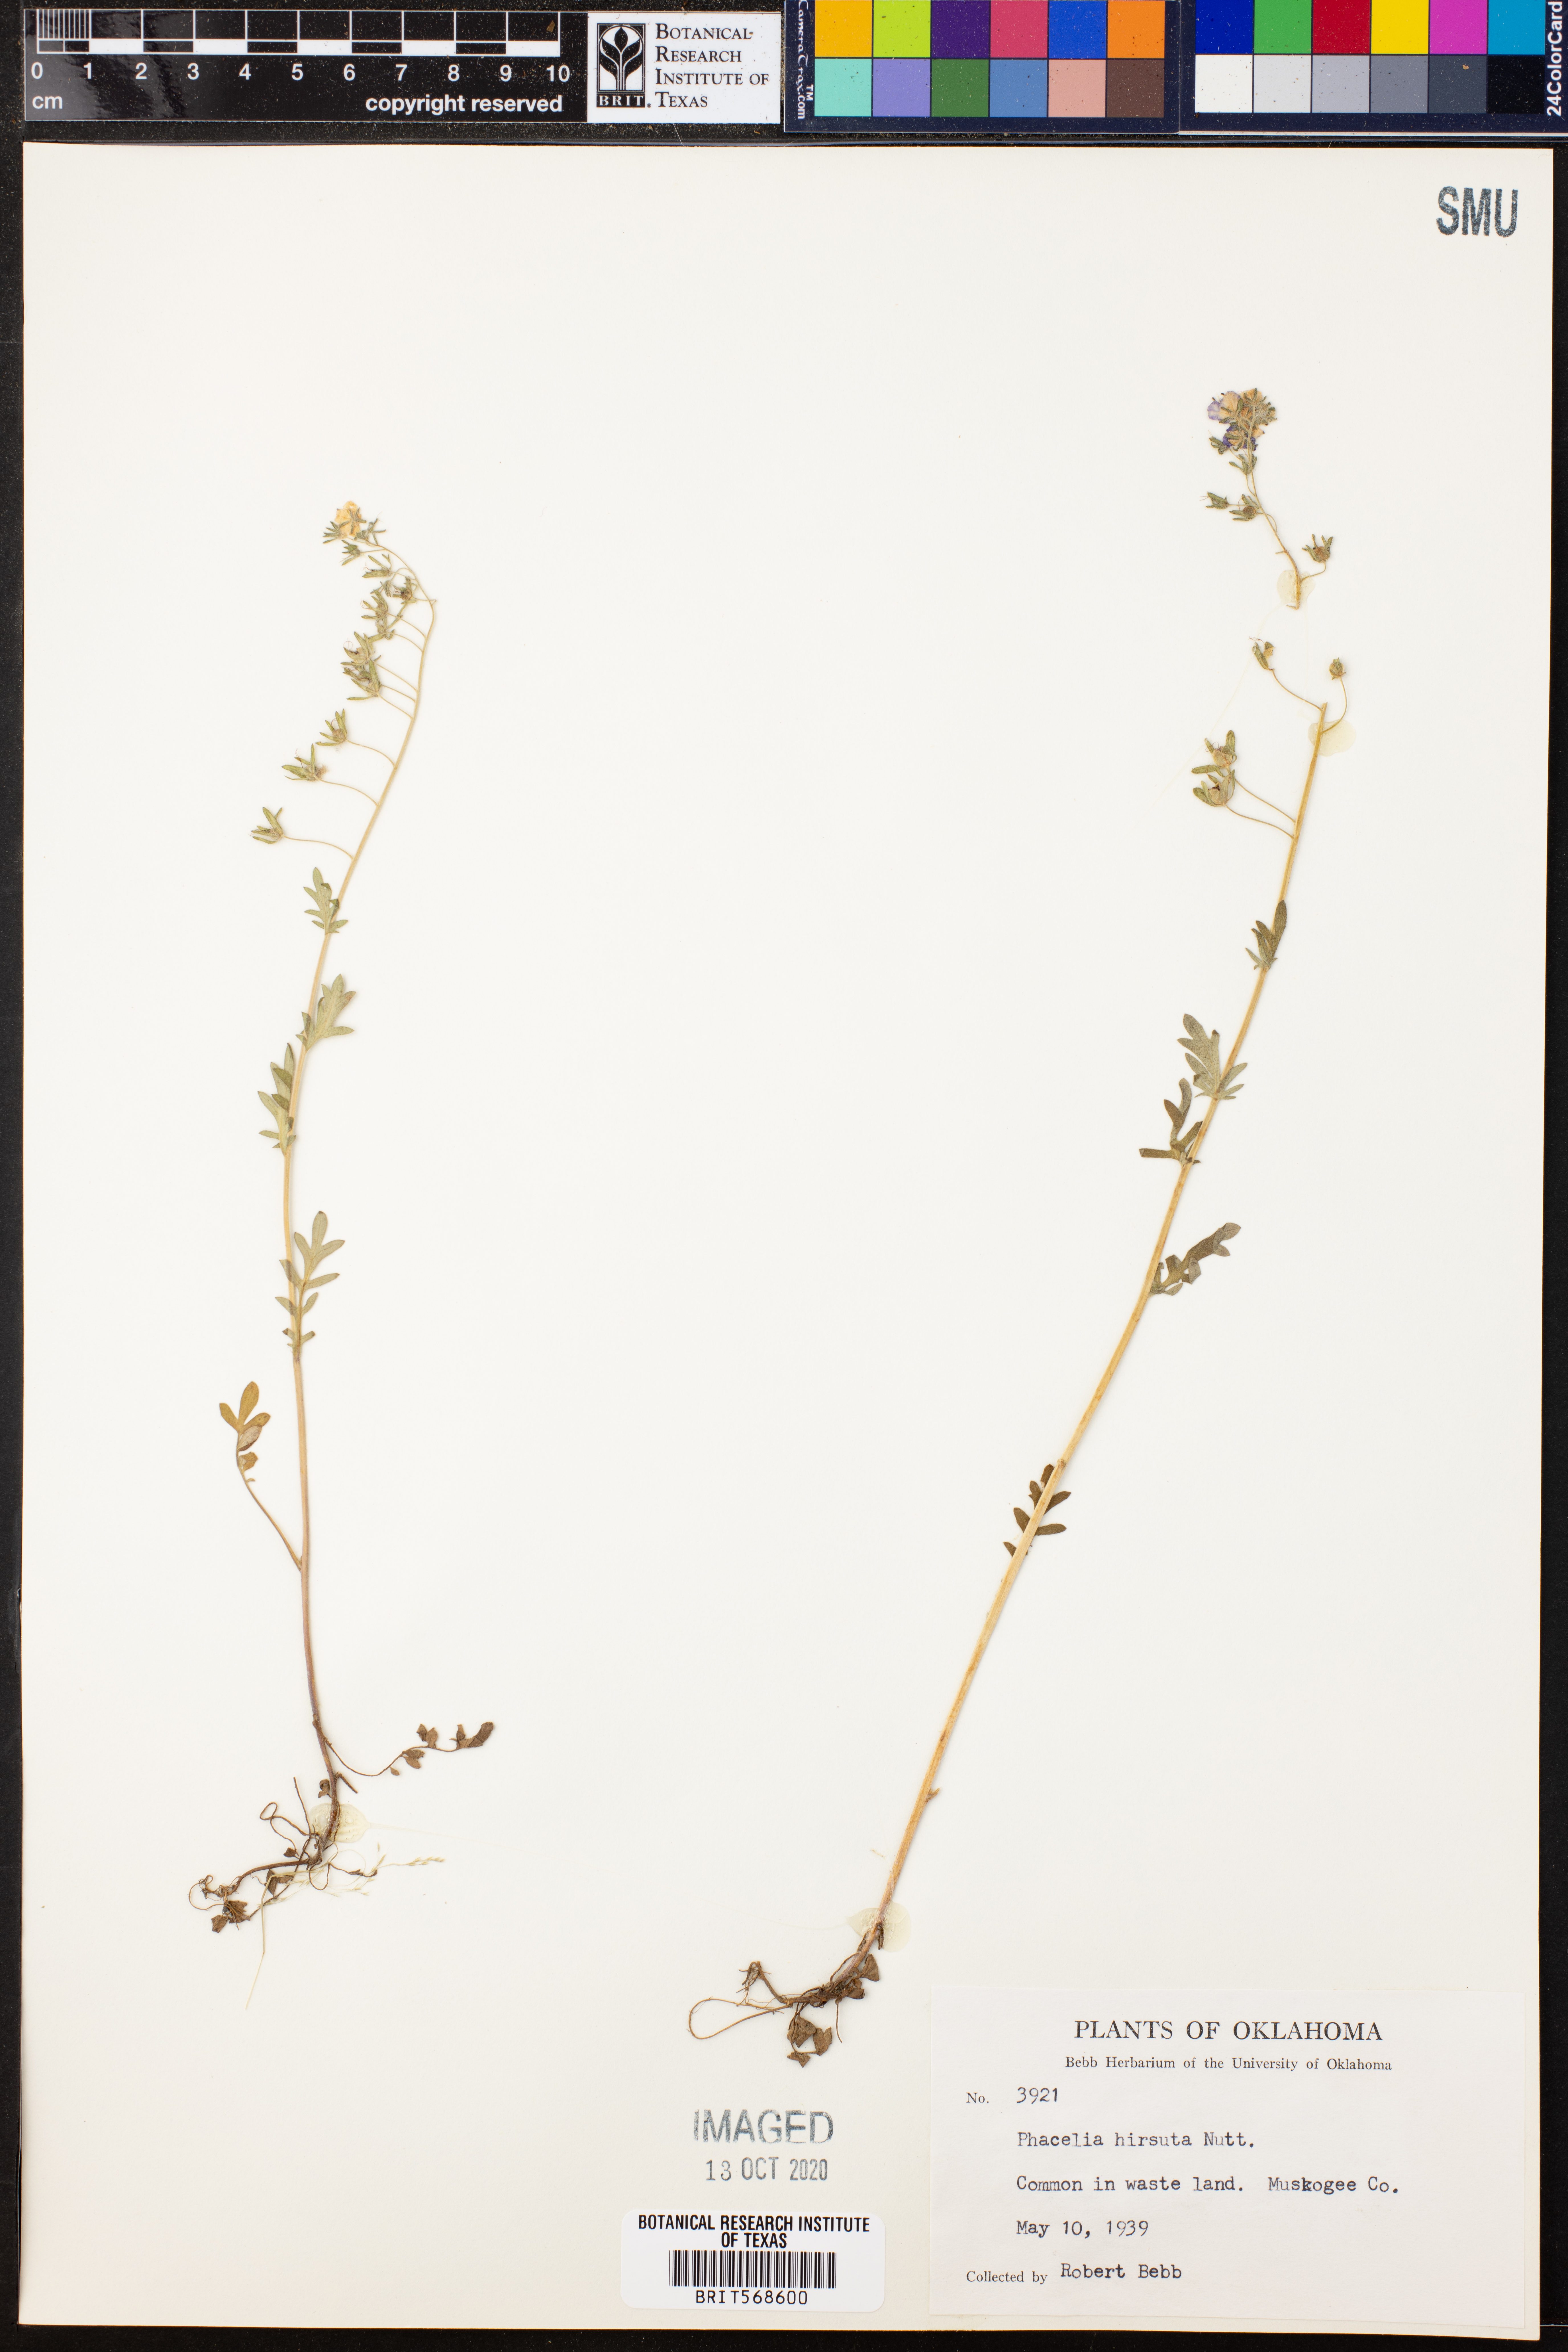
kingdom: Plantae
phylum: Tracheophyta
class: Magnoliopsida
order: Boraginales
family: Hydrophyllaceae
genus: Phacelia
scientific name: Phacelia hirsuta
